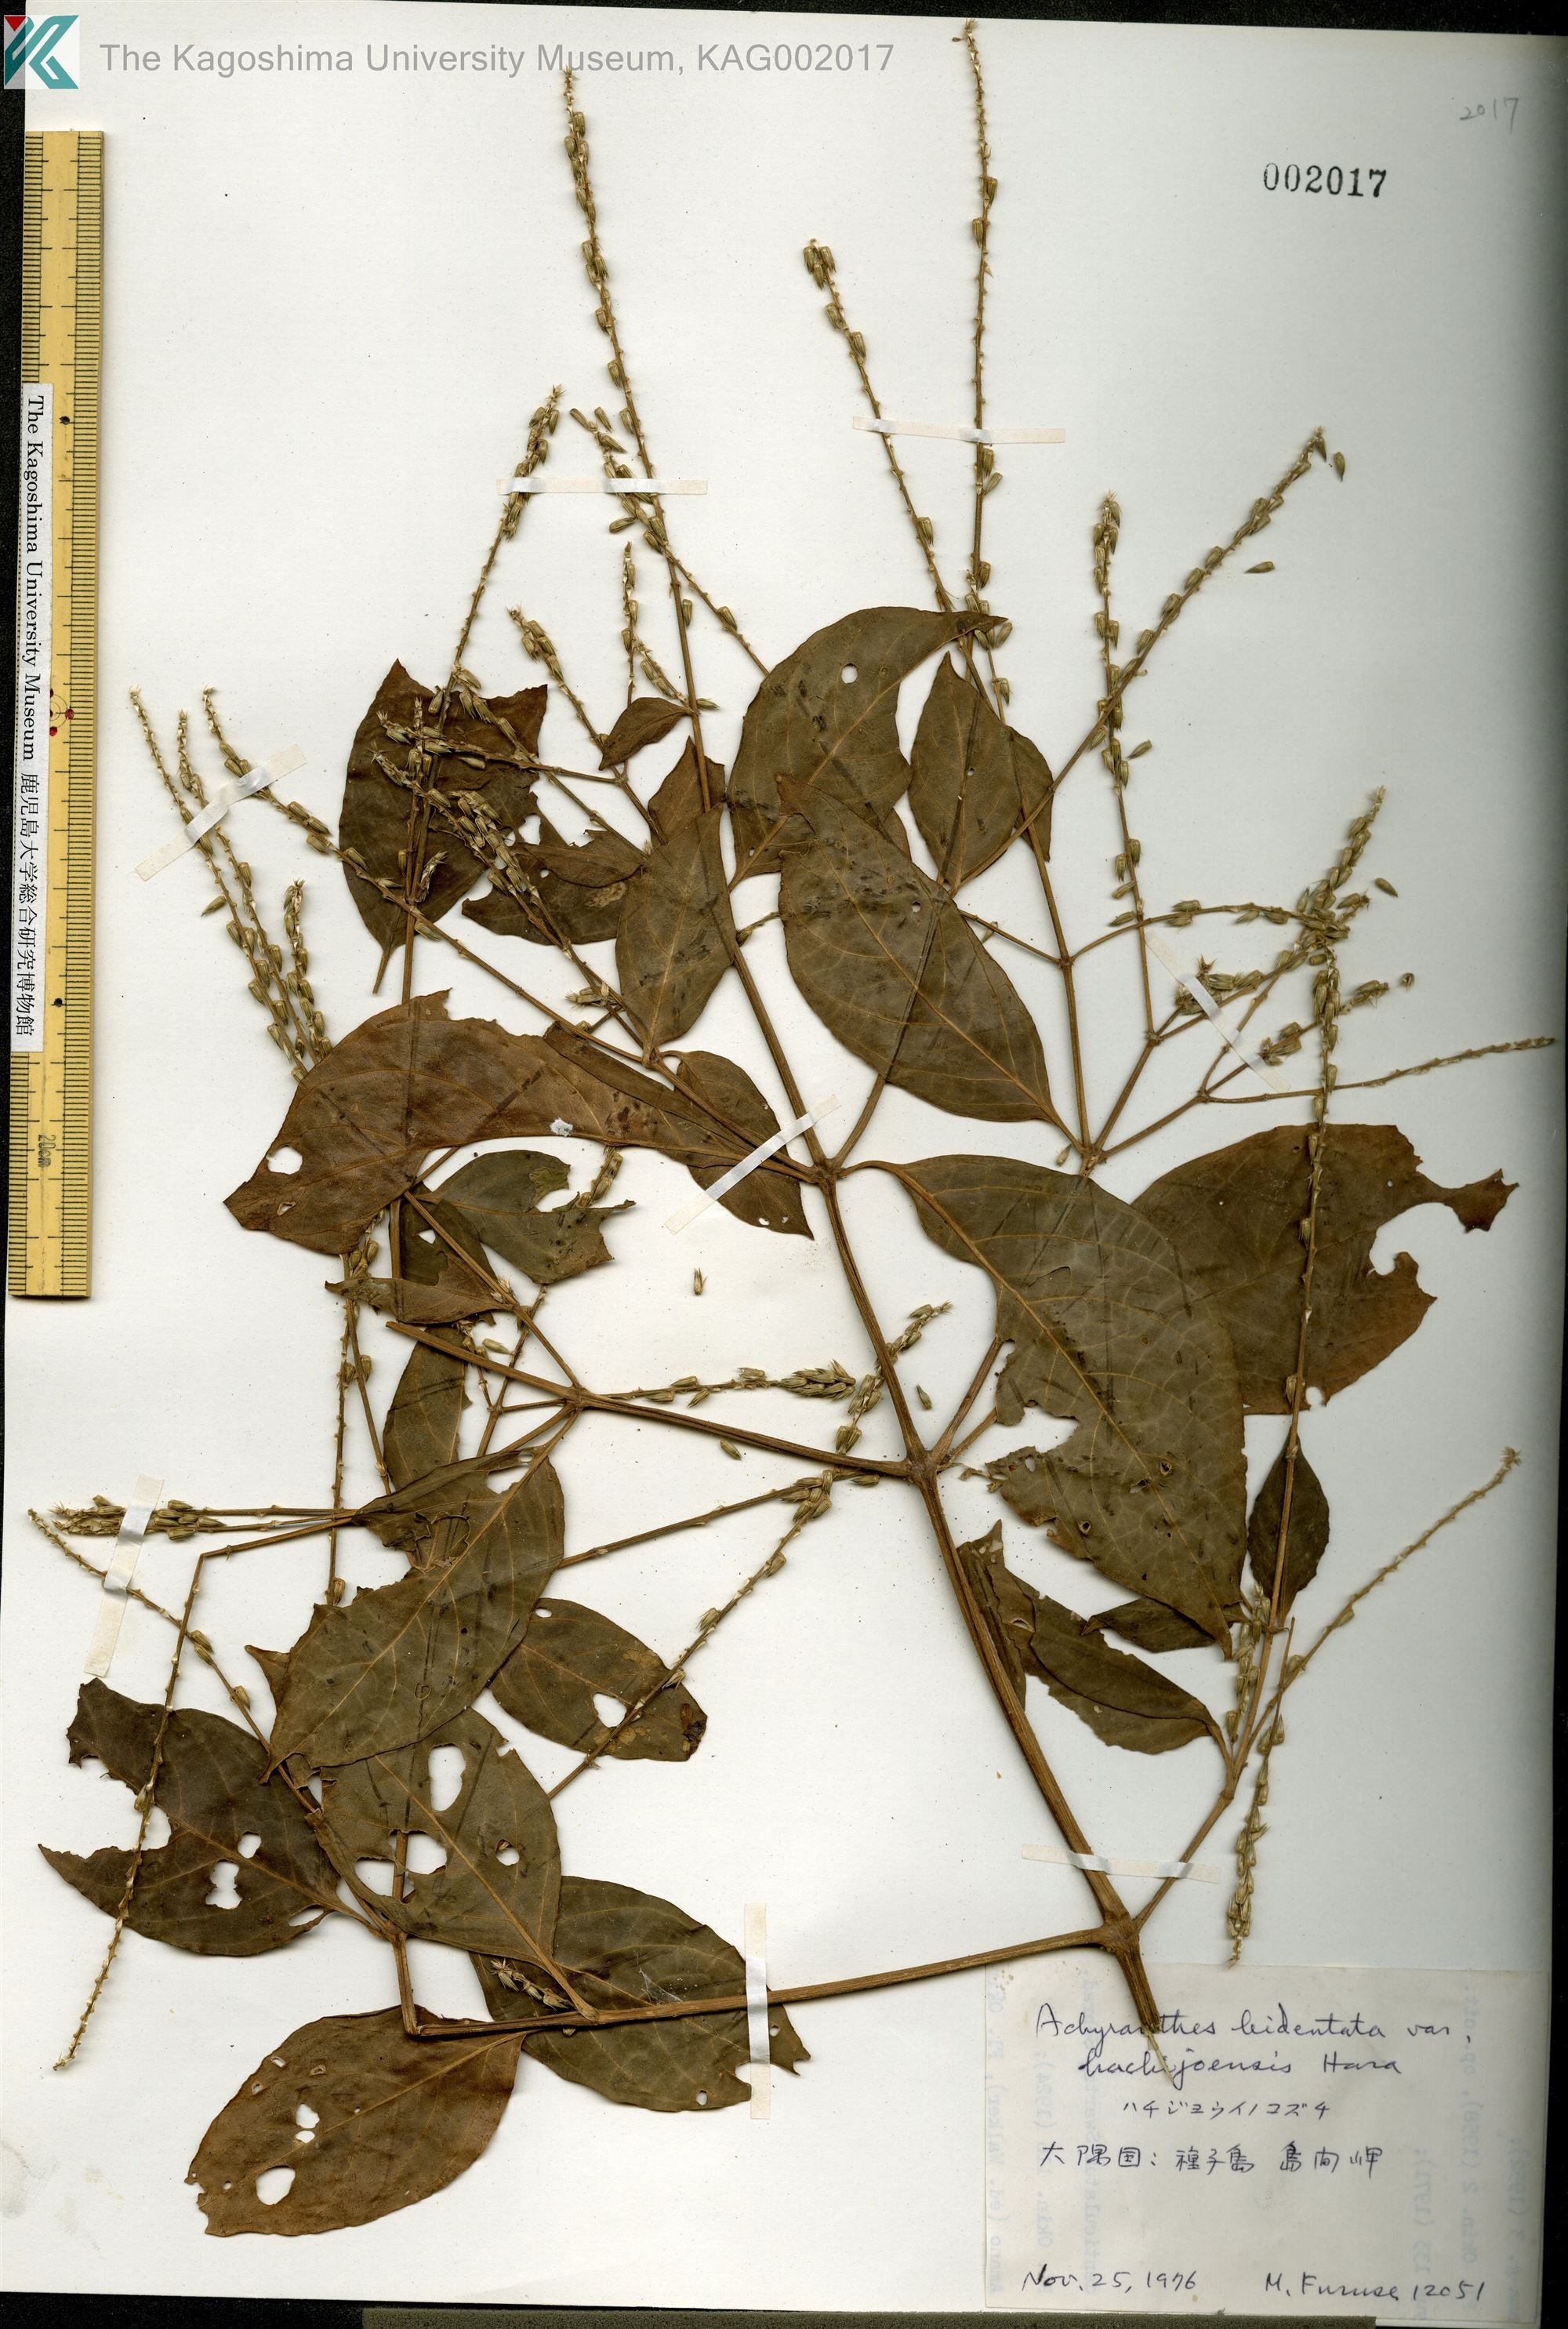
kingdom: Plantae
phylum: Tracheophyta
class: Magnoliopsida
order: Caryophyllales
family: Amaranthaceae
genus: Achyranthes
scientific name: Achyranthes bidentata
